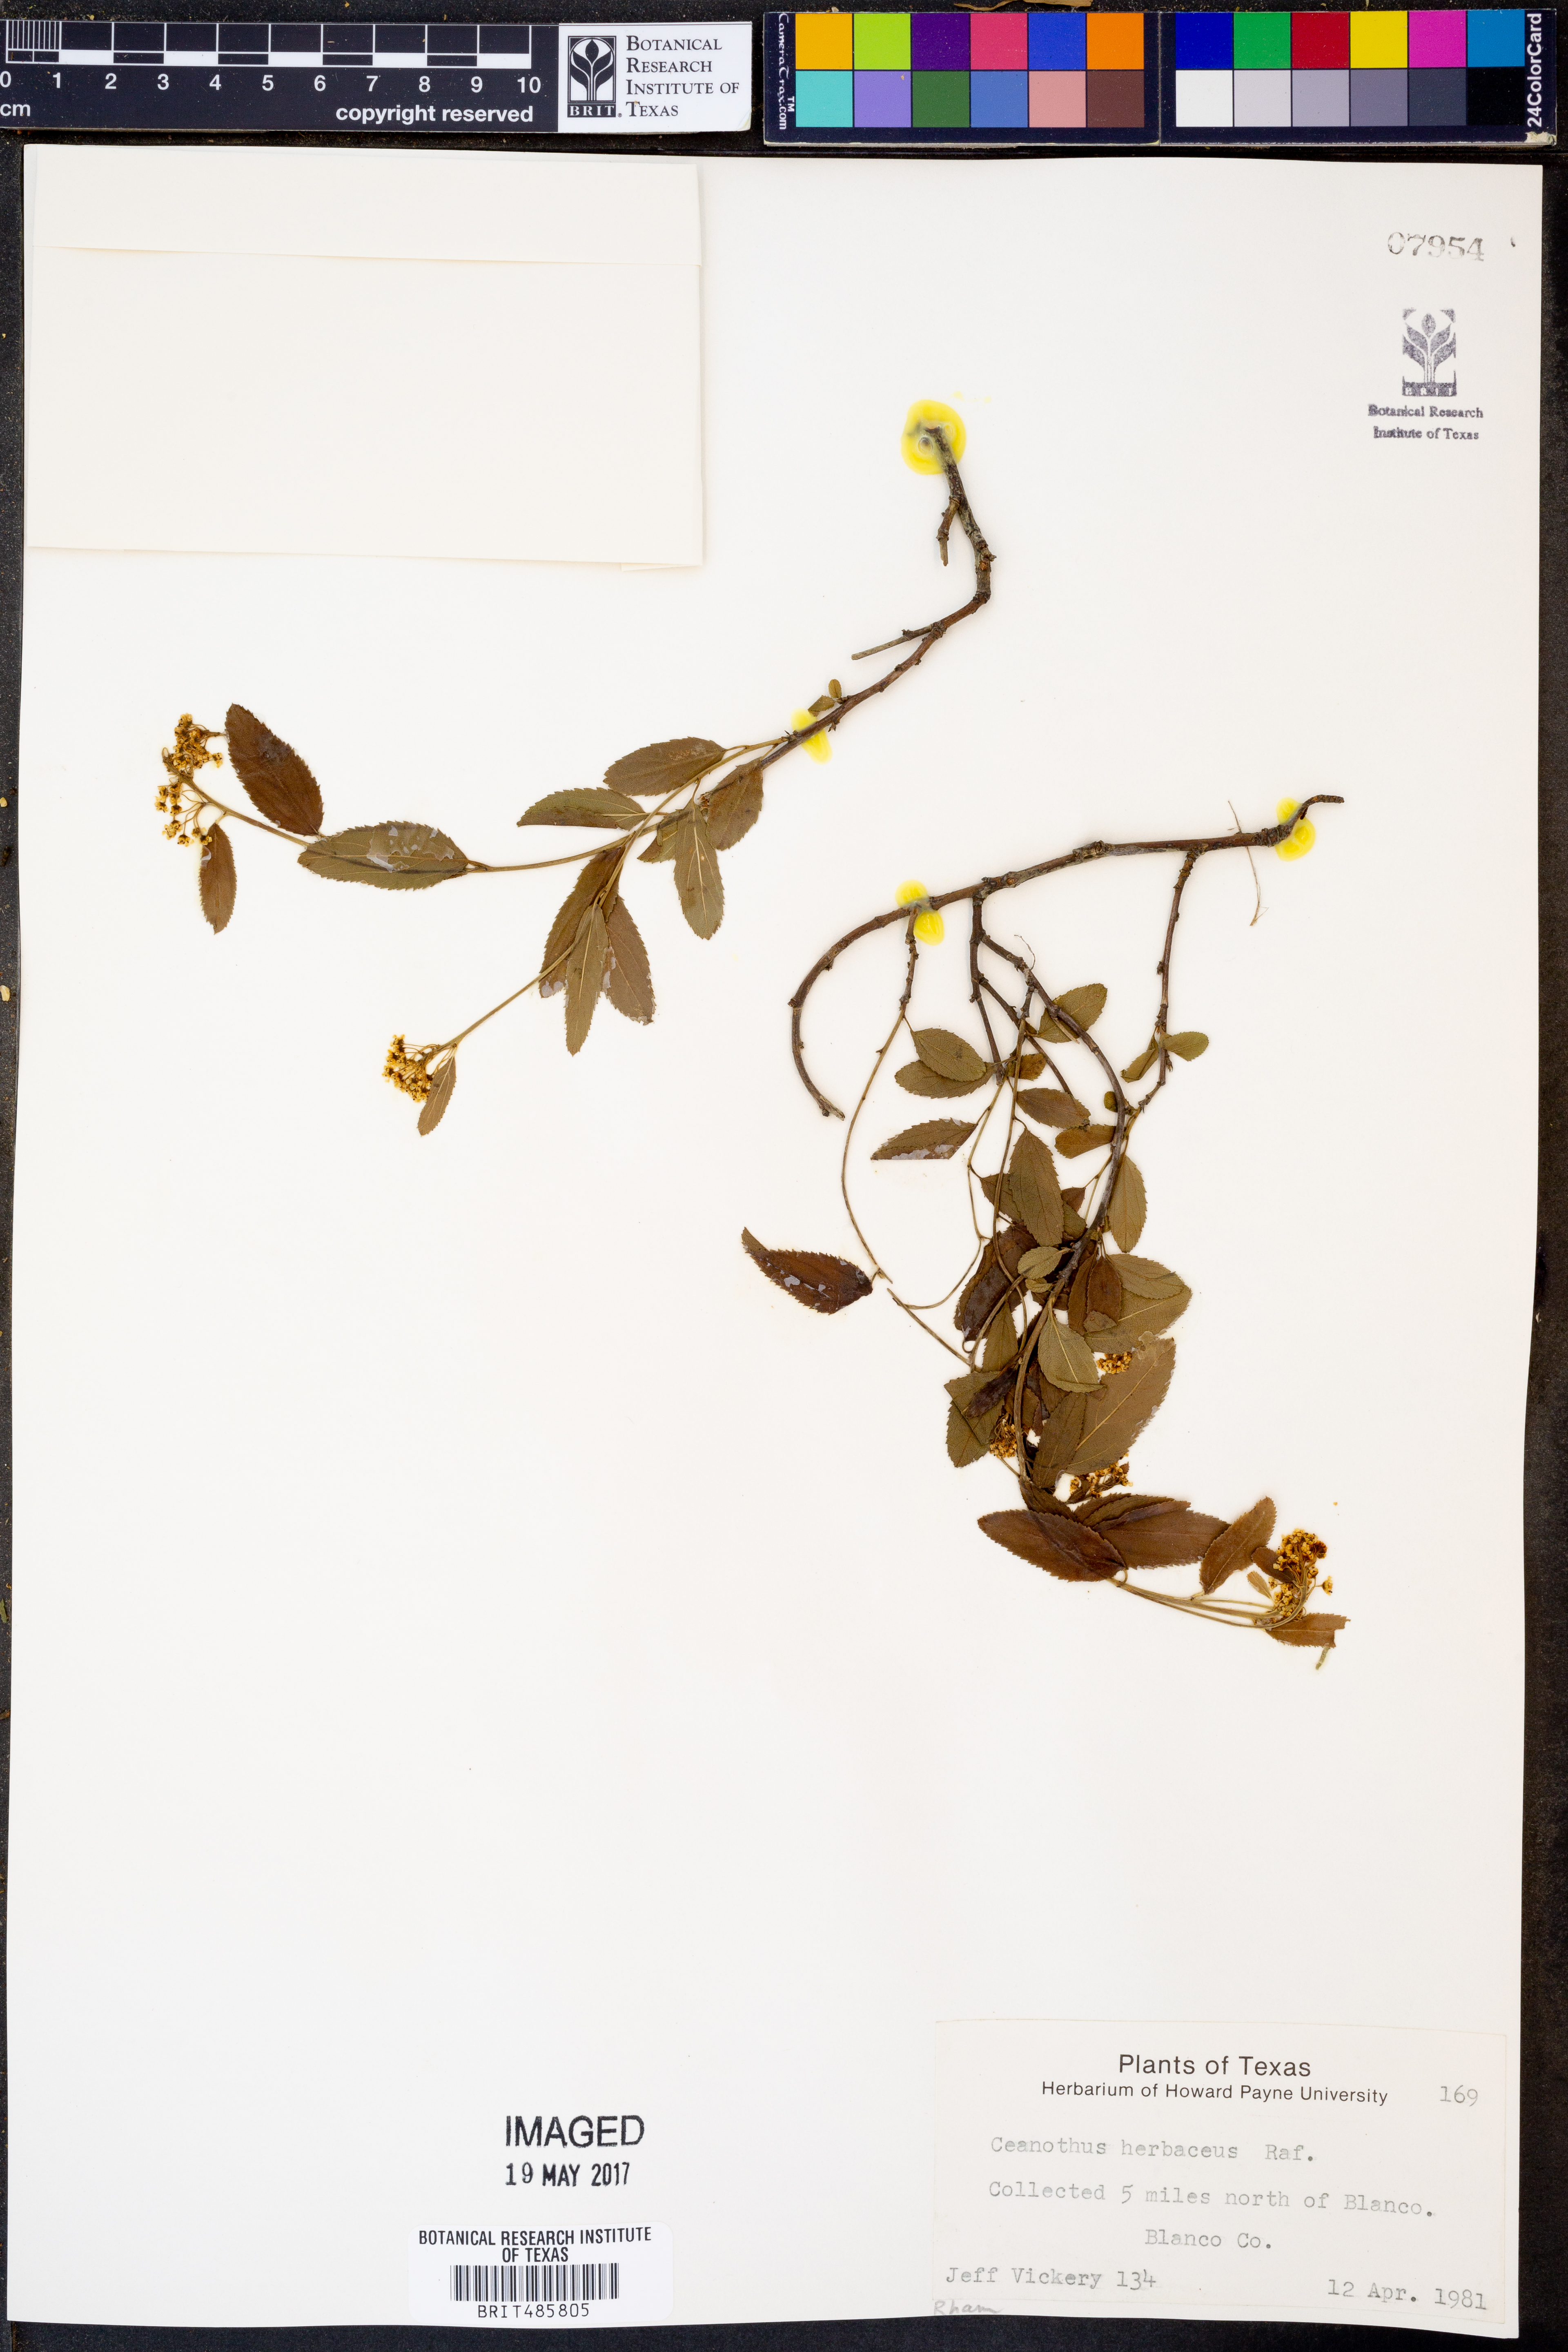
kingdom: Plantae
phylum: Tracheophyta
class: Magnoliopsida
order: Rosales
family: Rhamnaceae
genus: Ceanothus
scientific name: Ceanothus herbaceus
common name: Inland ceanothus
